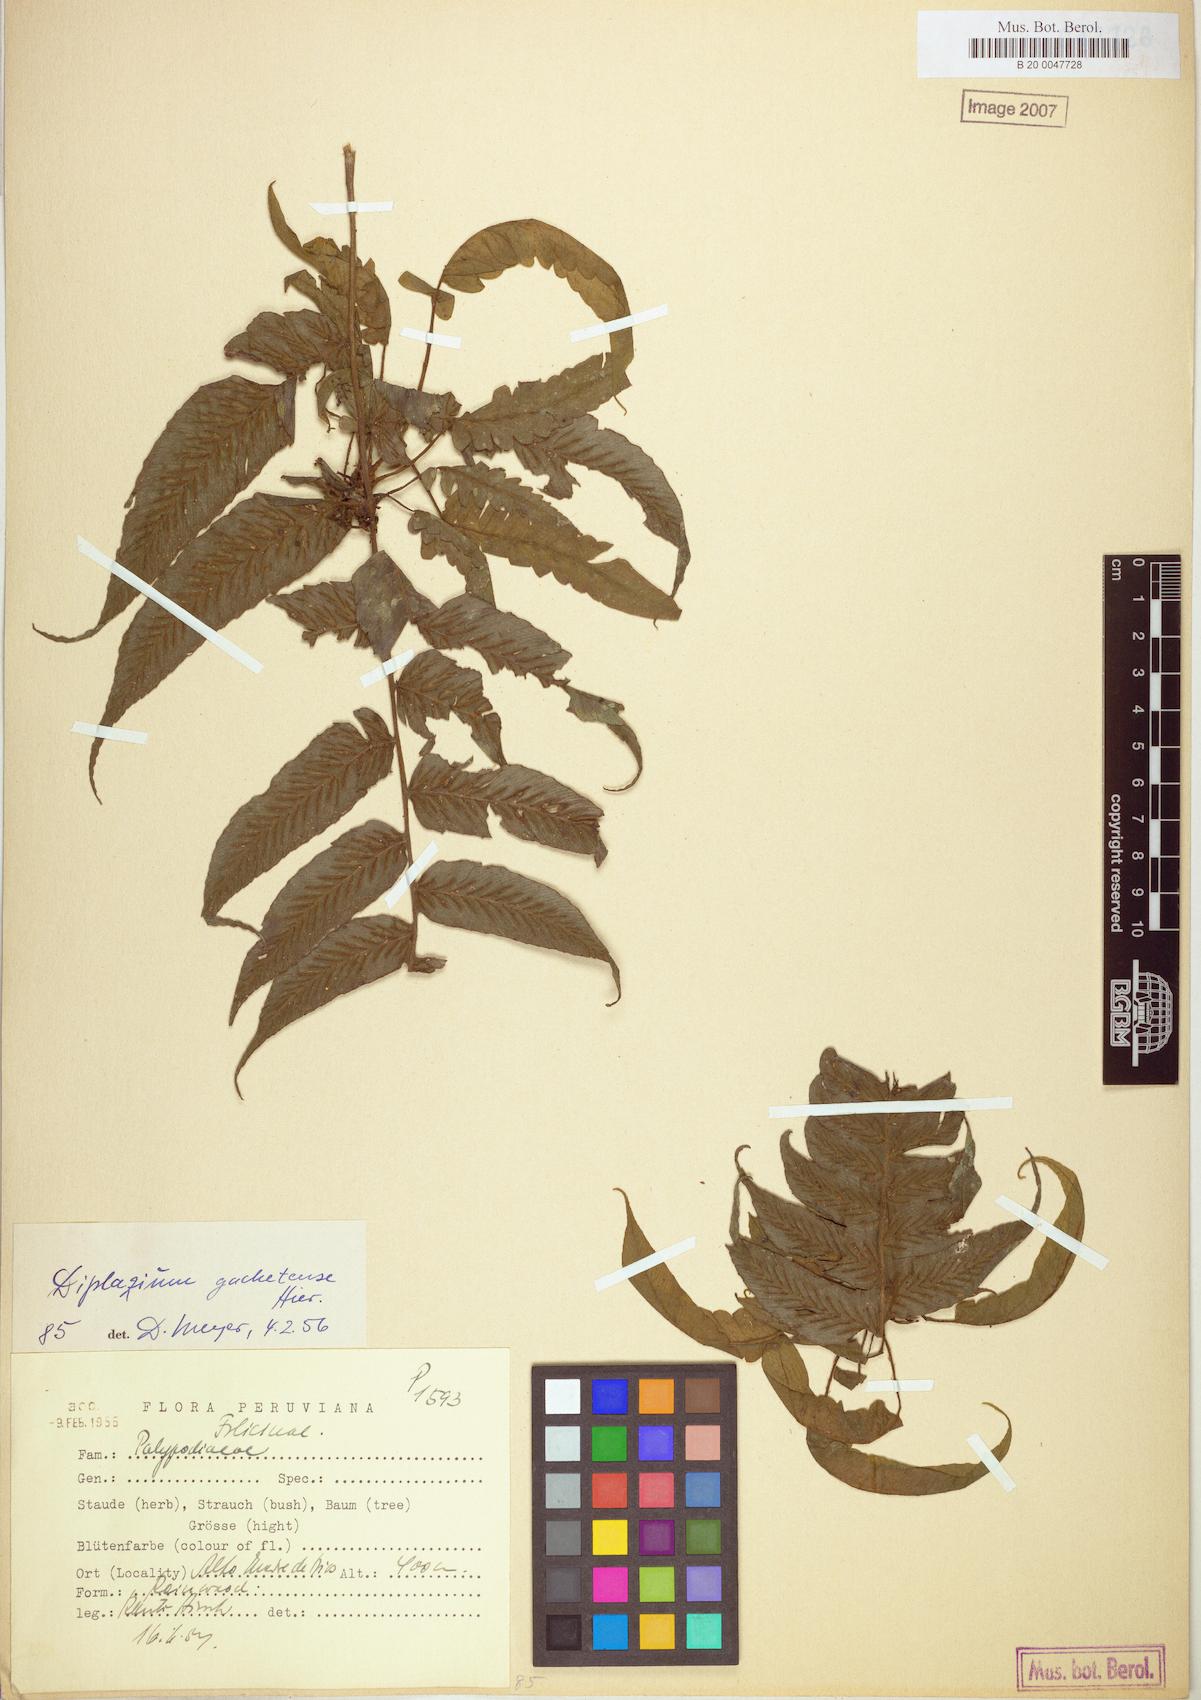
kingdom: Plantae
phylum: Tracheophyta
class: Polypodiopsida
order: Polypodiales
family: Athyriaceae
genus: Diplazium
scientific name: Diplazium gachetense
